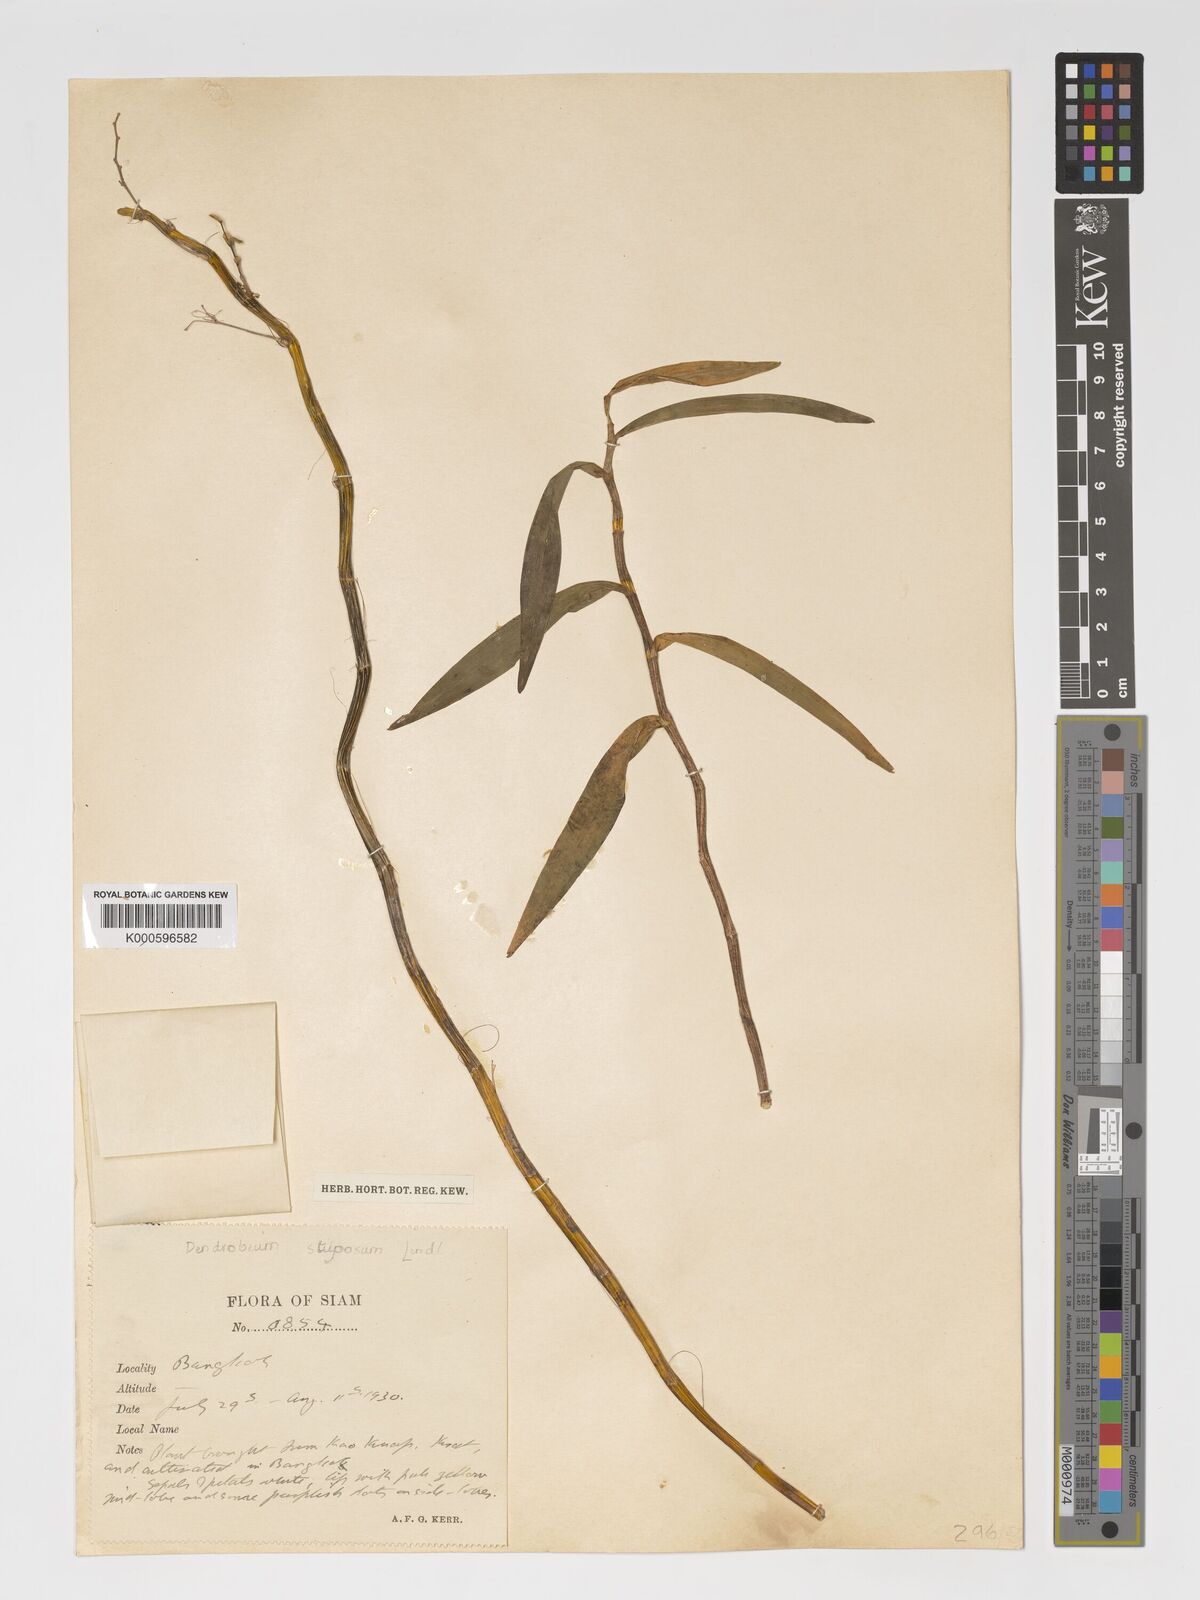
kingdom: Plantae
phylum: Tracheophyta
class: Liliopsida
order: Asparagales
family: Orchidaceae
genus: Dendrobium
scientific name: Dendrobium stuposum
